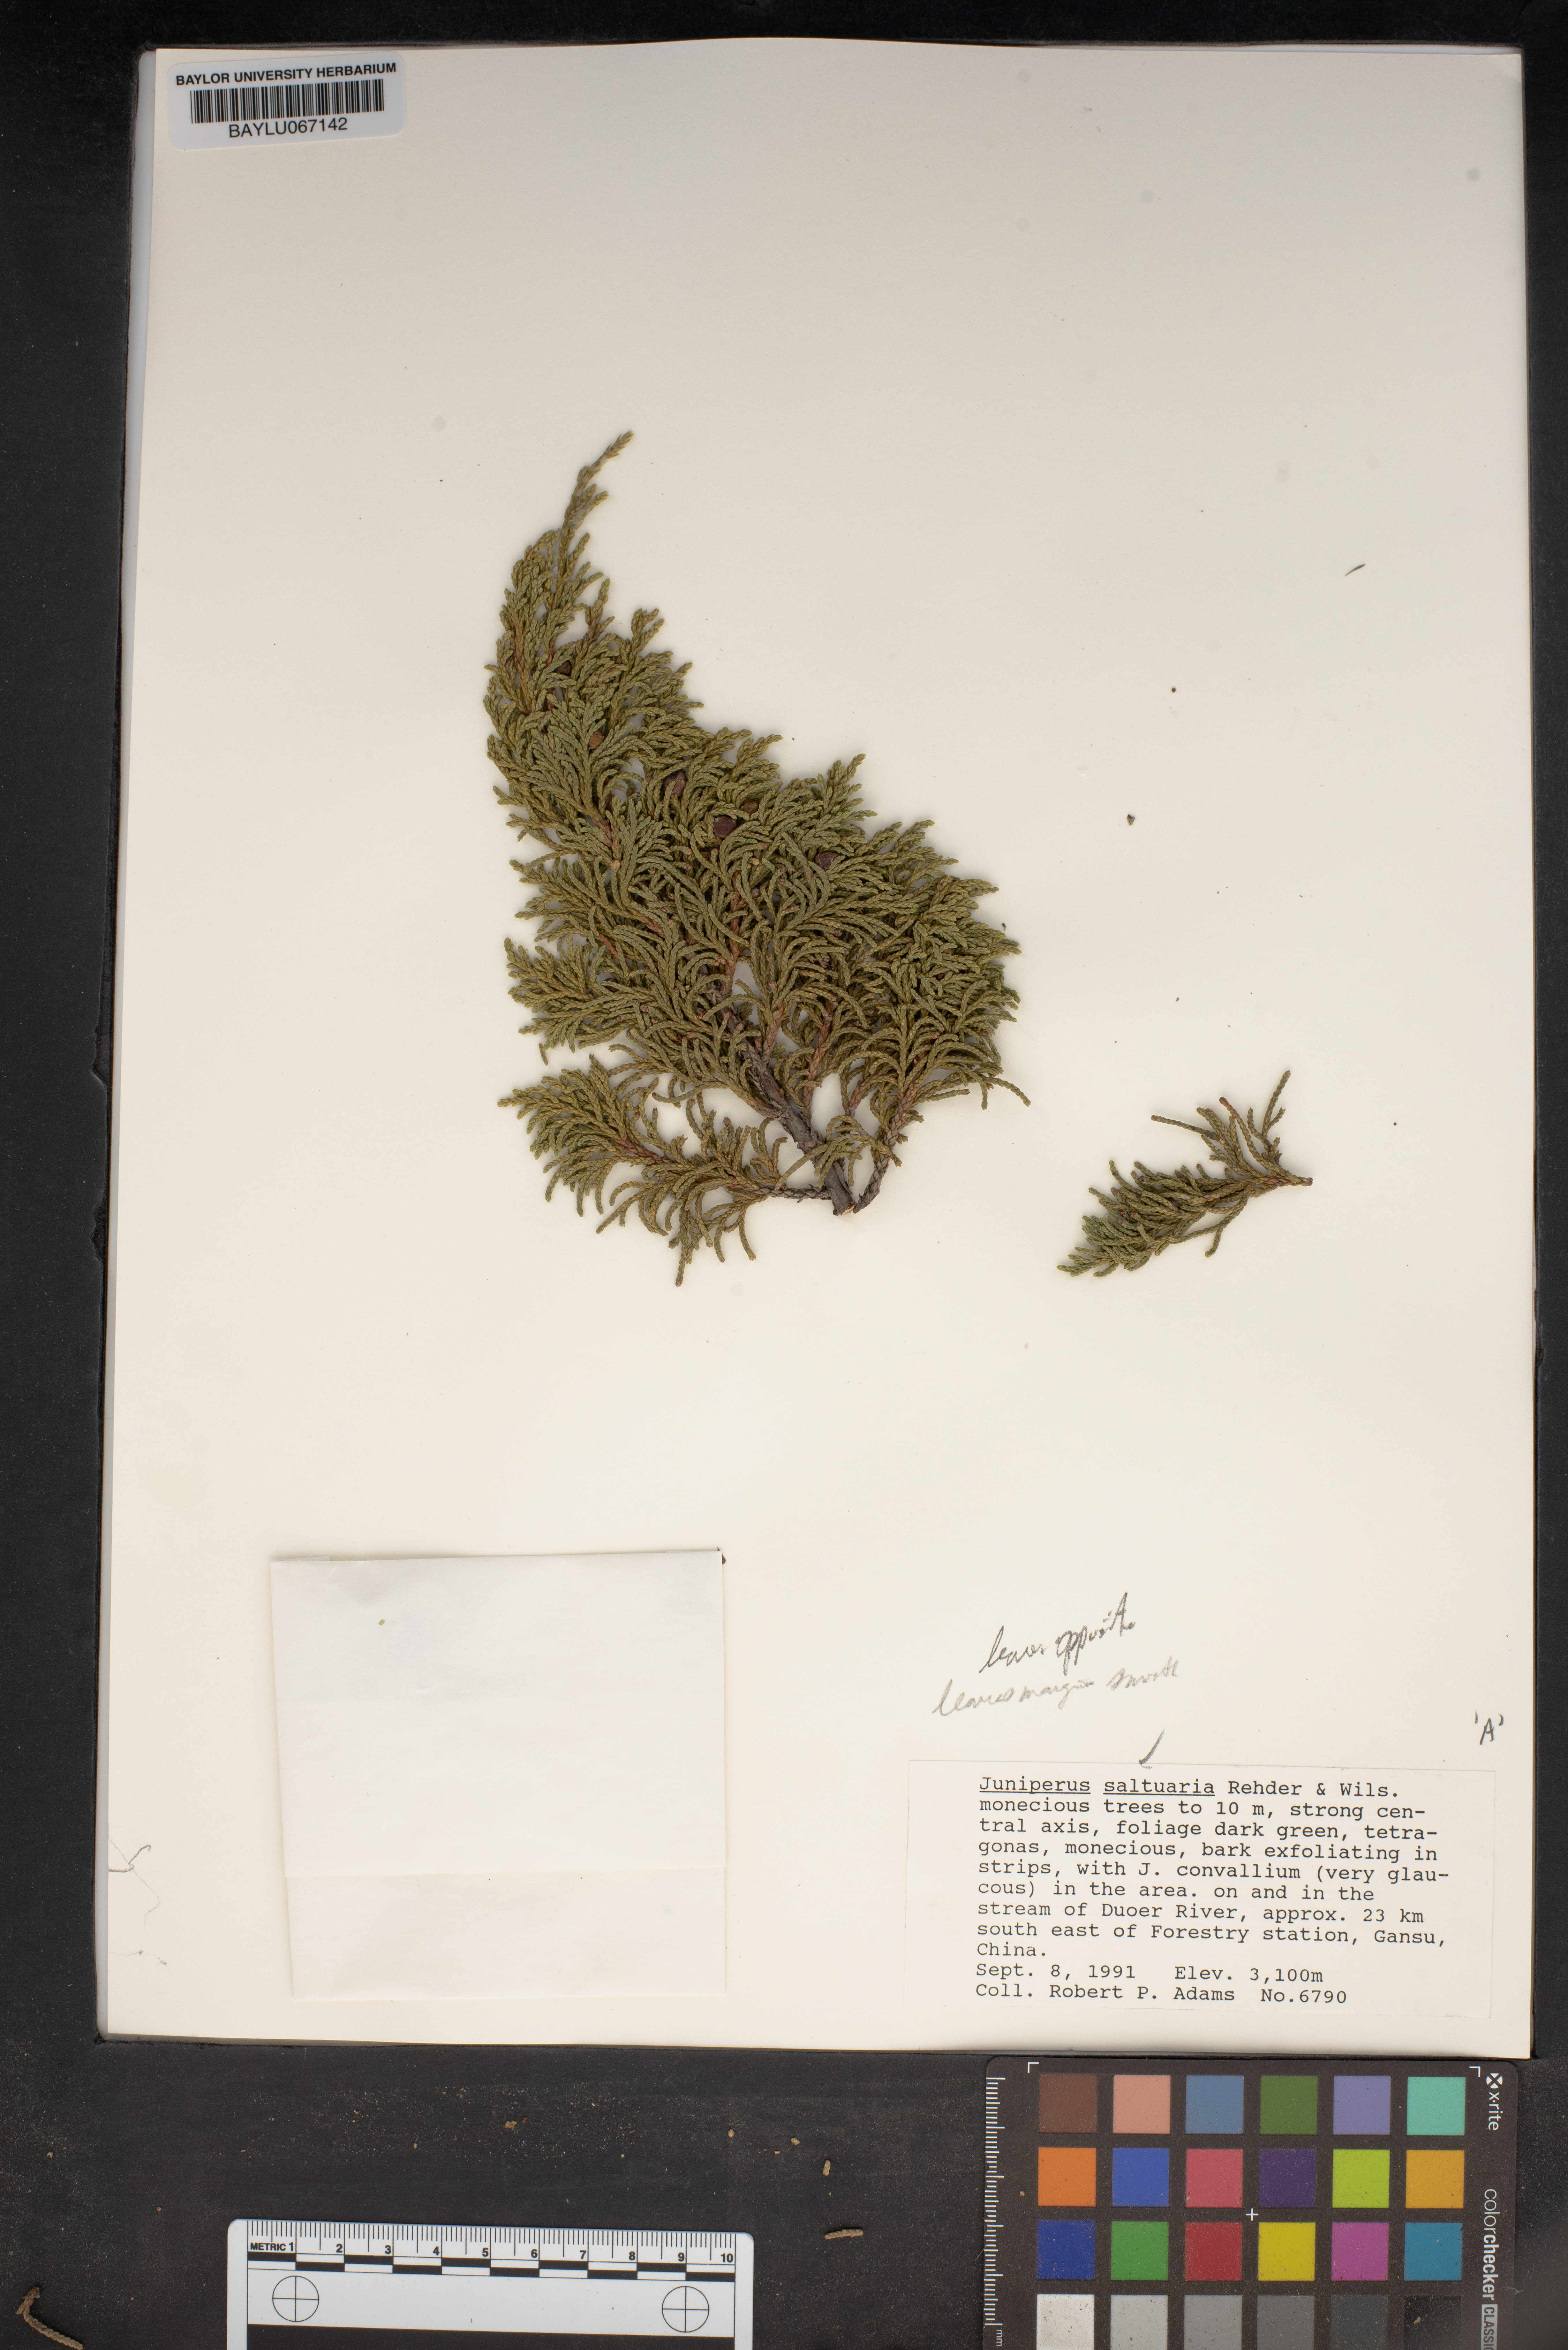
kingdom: Plantae
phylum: Tracheophyta
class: Pinopsida
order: Pinales
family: Cupressaceae
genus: Juniperus
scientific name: Juniperus saltuaria
